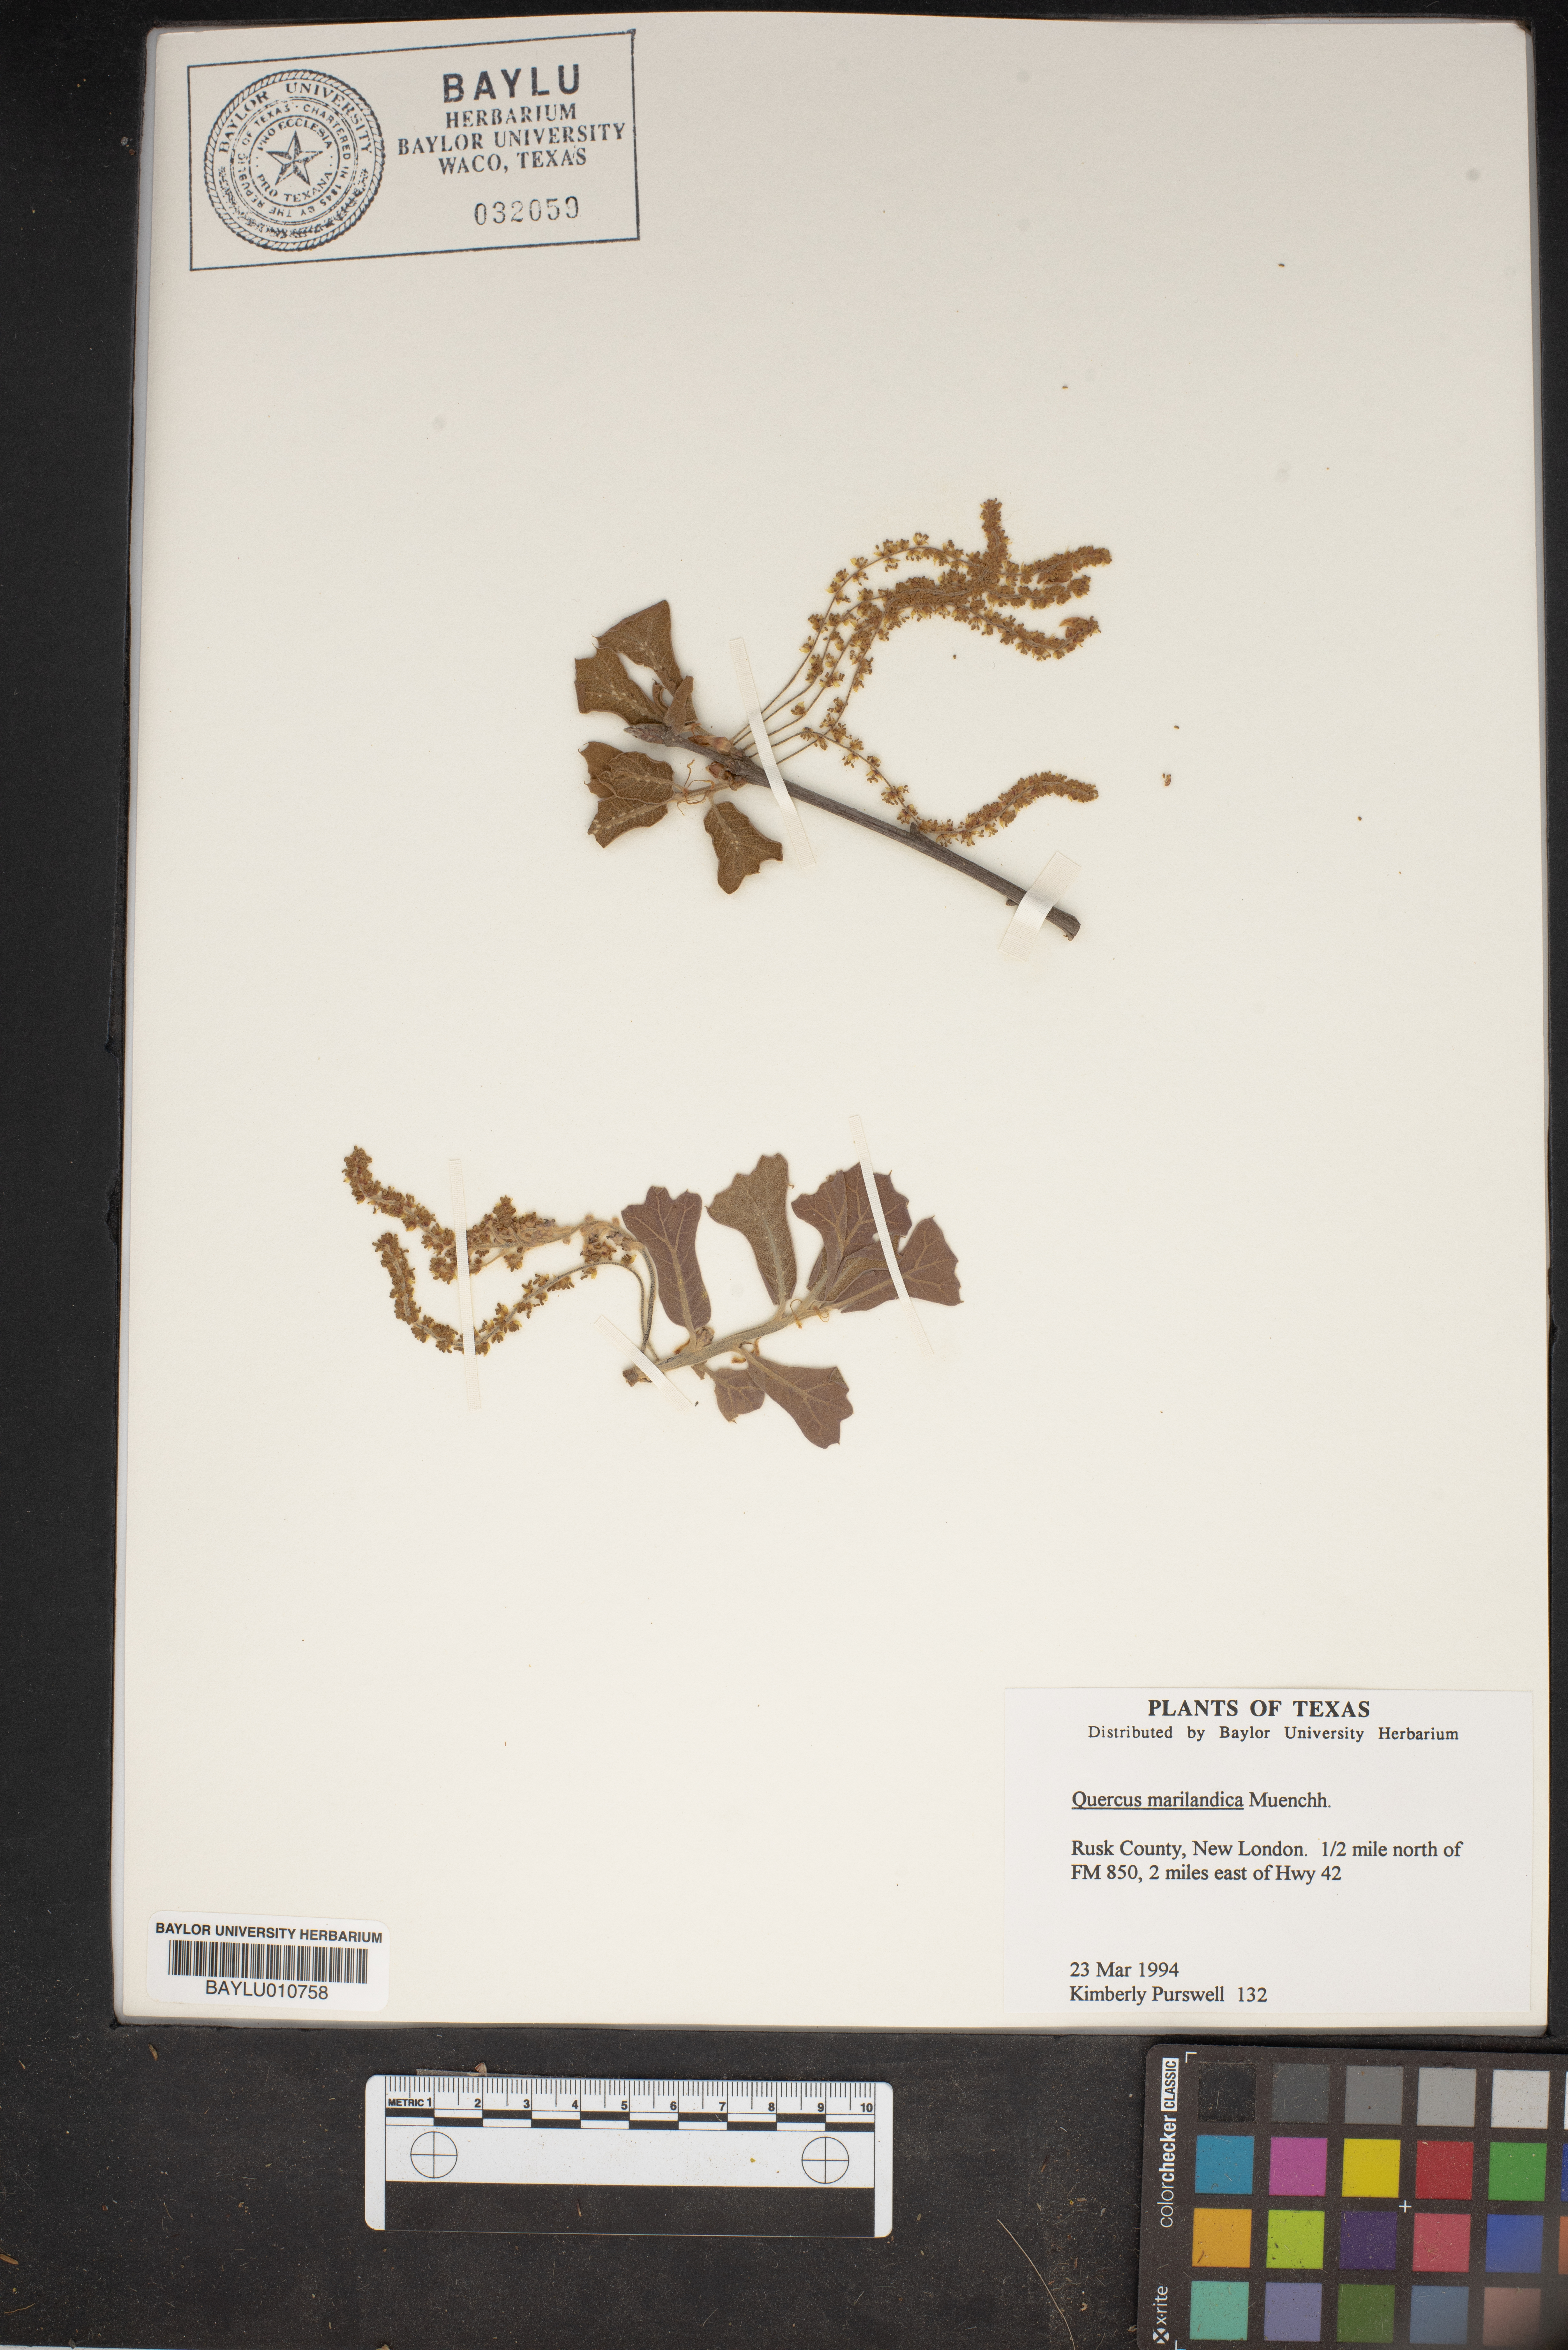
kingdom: Plantae
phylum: Tracheophyta
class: Magnoliopsida
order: Fagales
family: Fagaceae
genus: Quercus
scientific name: Quercus marilandica
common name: Blackjack oak
